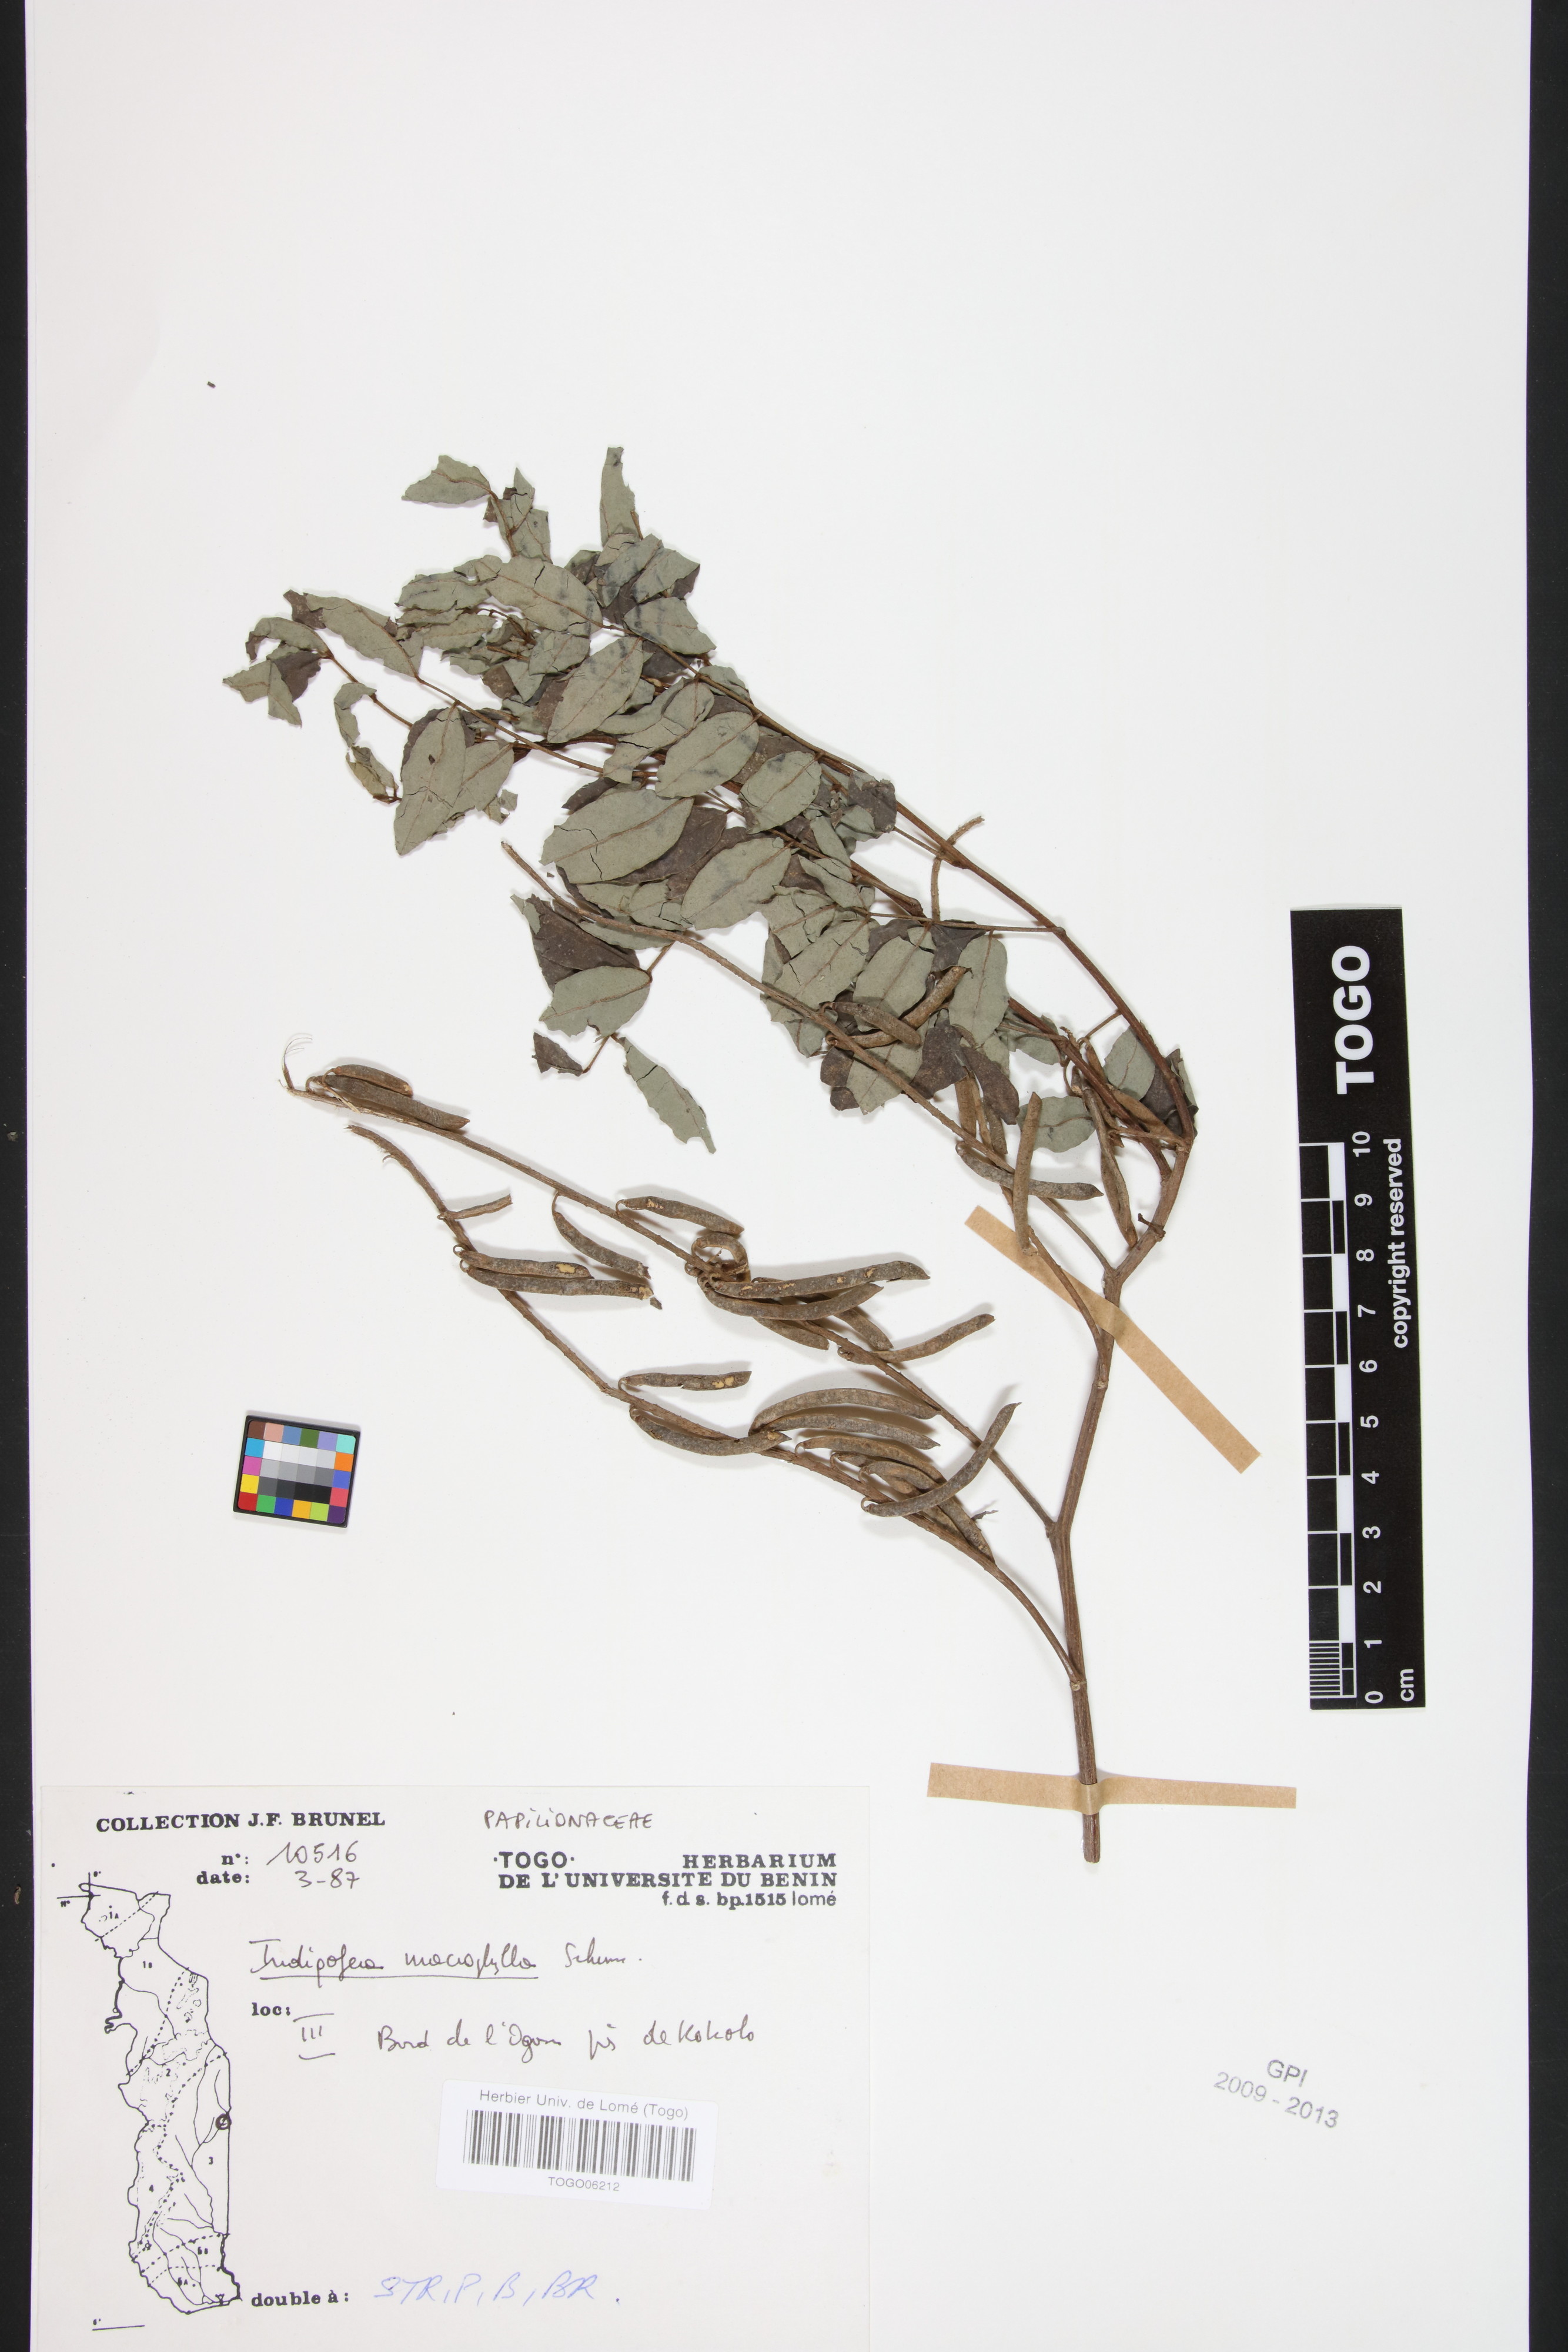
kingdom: Plantae
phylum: Tracheophyta
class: Magnoliopsida
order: Fabales
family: Fabaceae
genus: Indigofera
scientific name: Indigofera macrophylla
